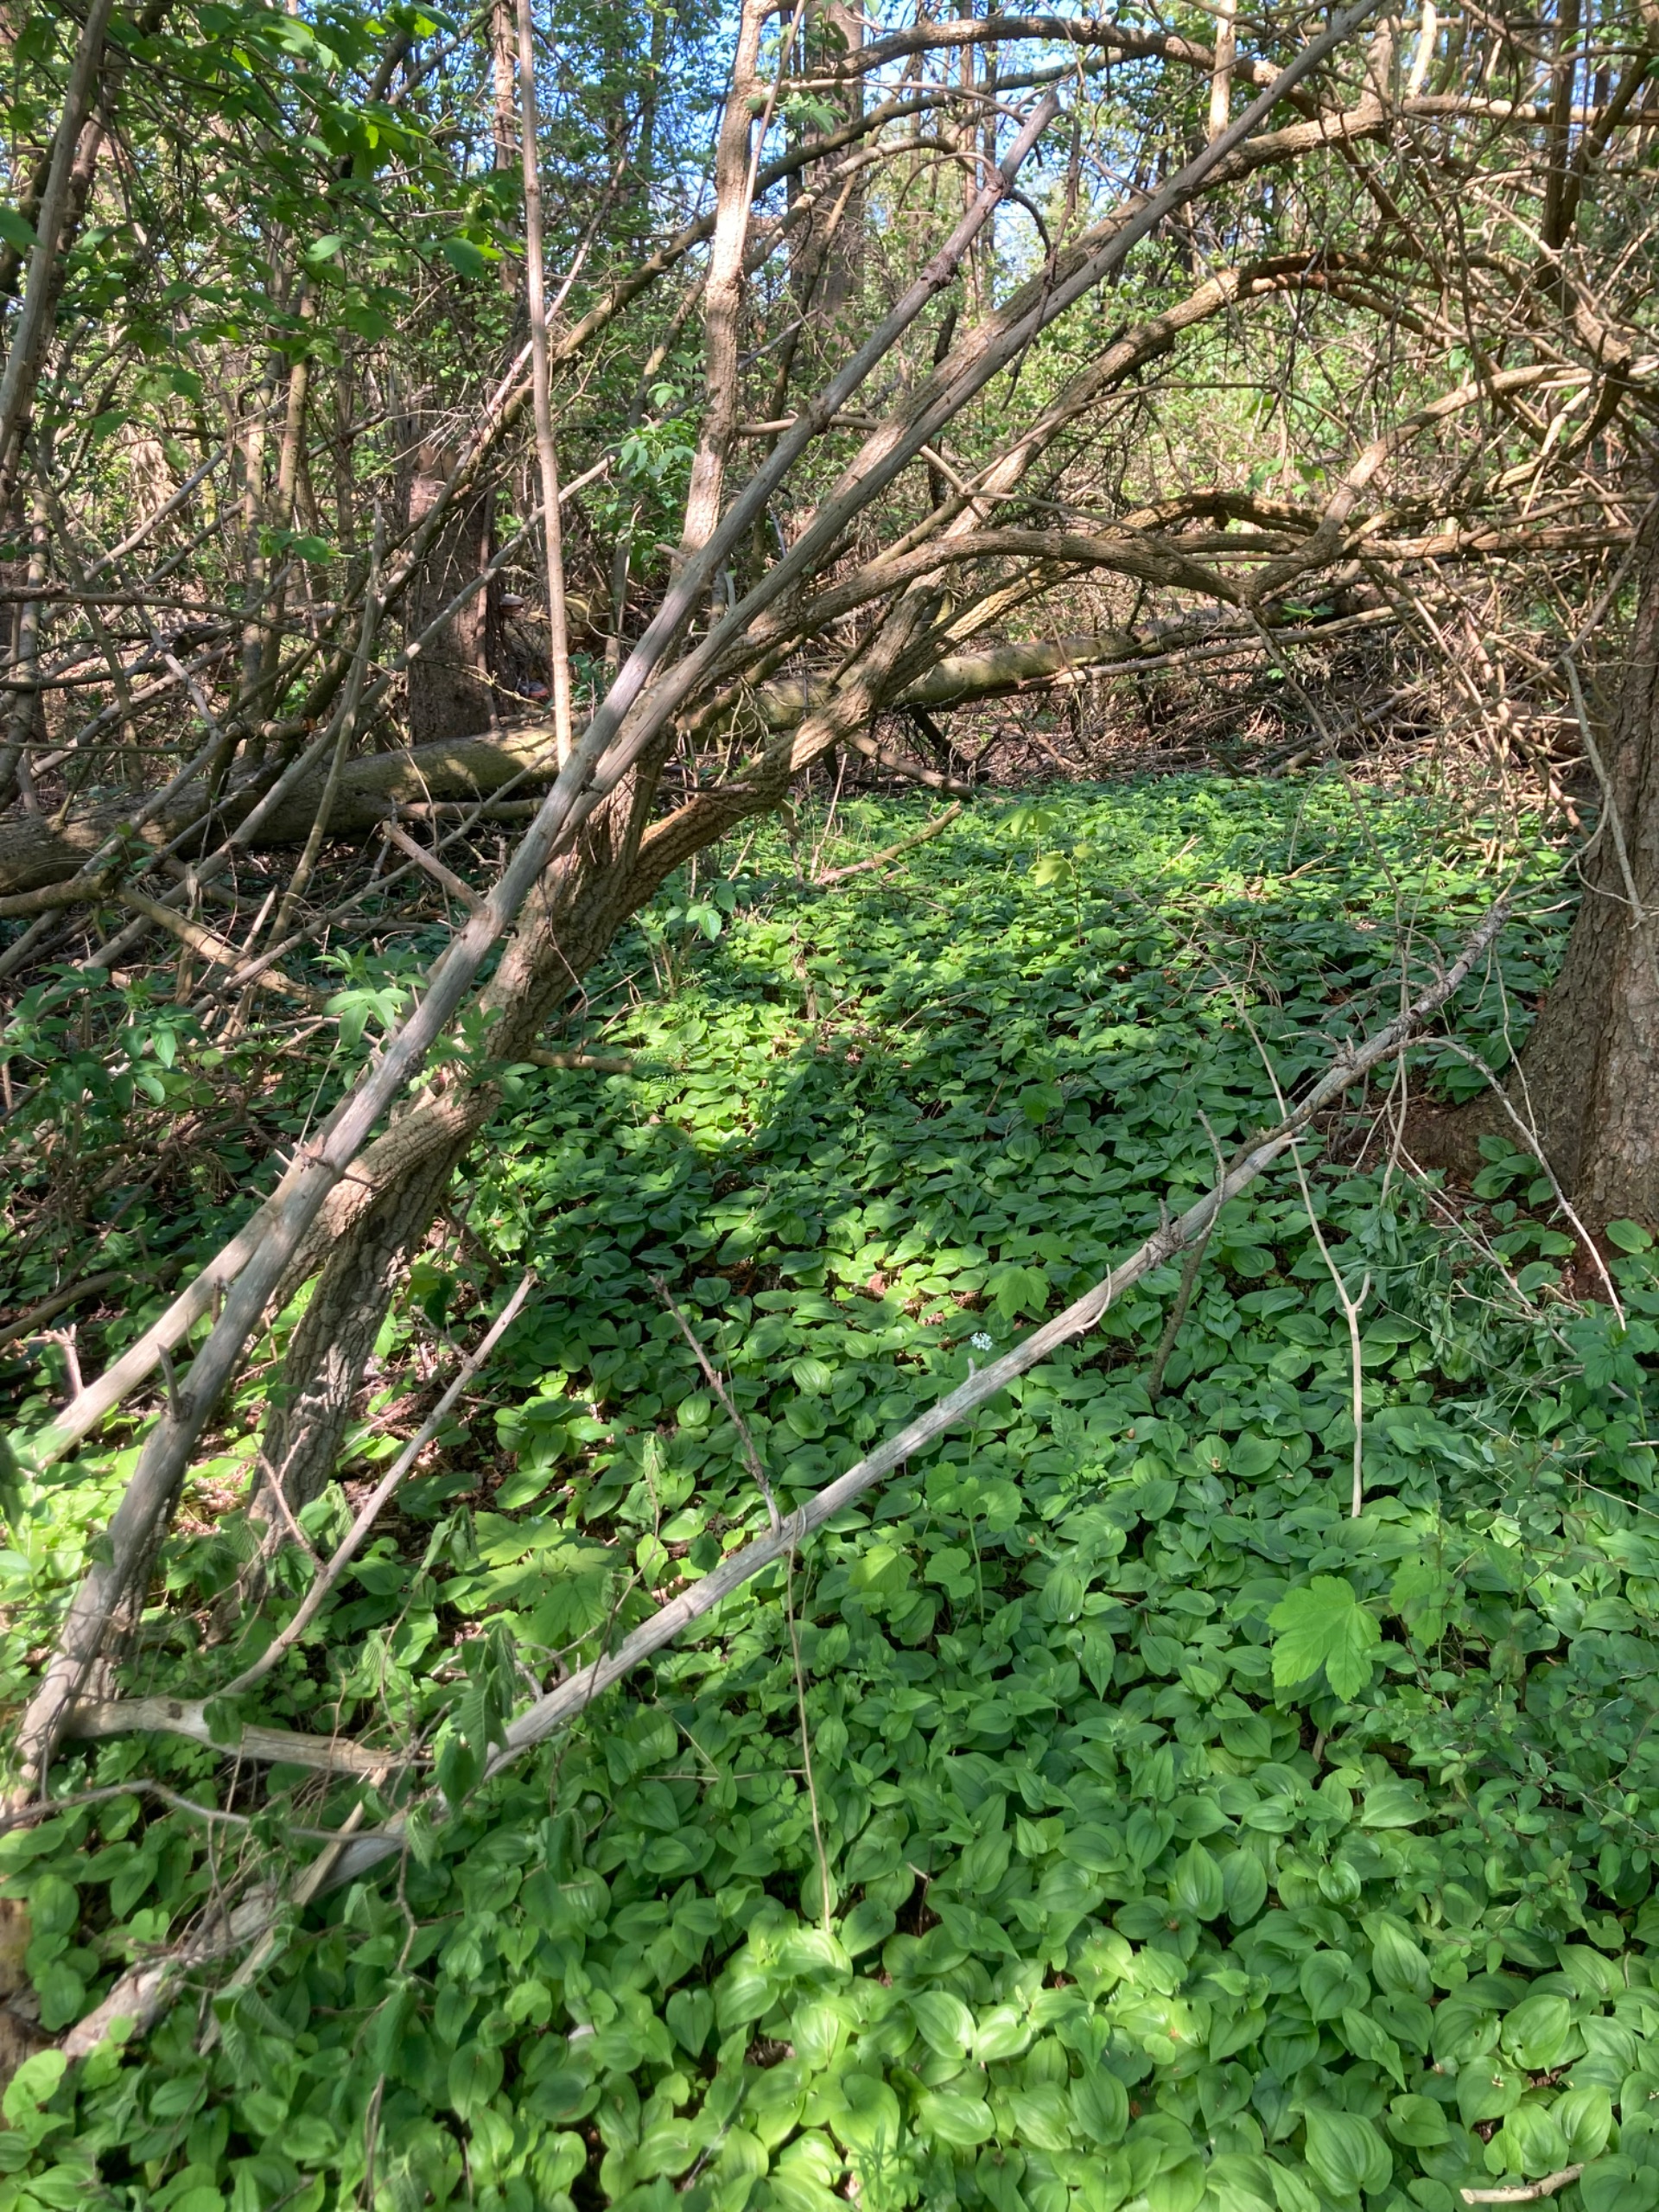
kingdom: Plantae
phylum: Tracheophyta
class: Liliopsida
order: Asparagales
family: Asparagaceae
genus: Maianthemum
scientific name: Maianthemum bifolium
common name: Majblomst
